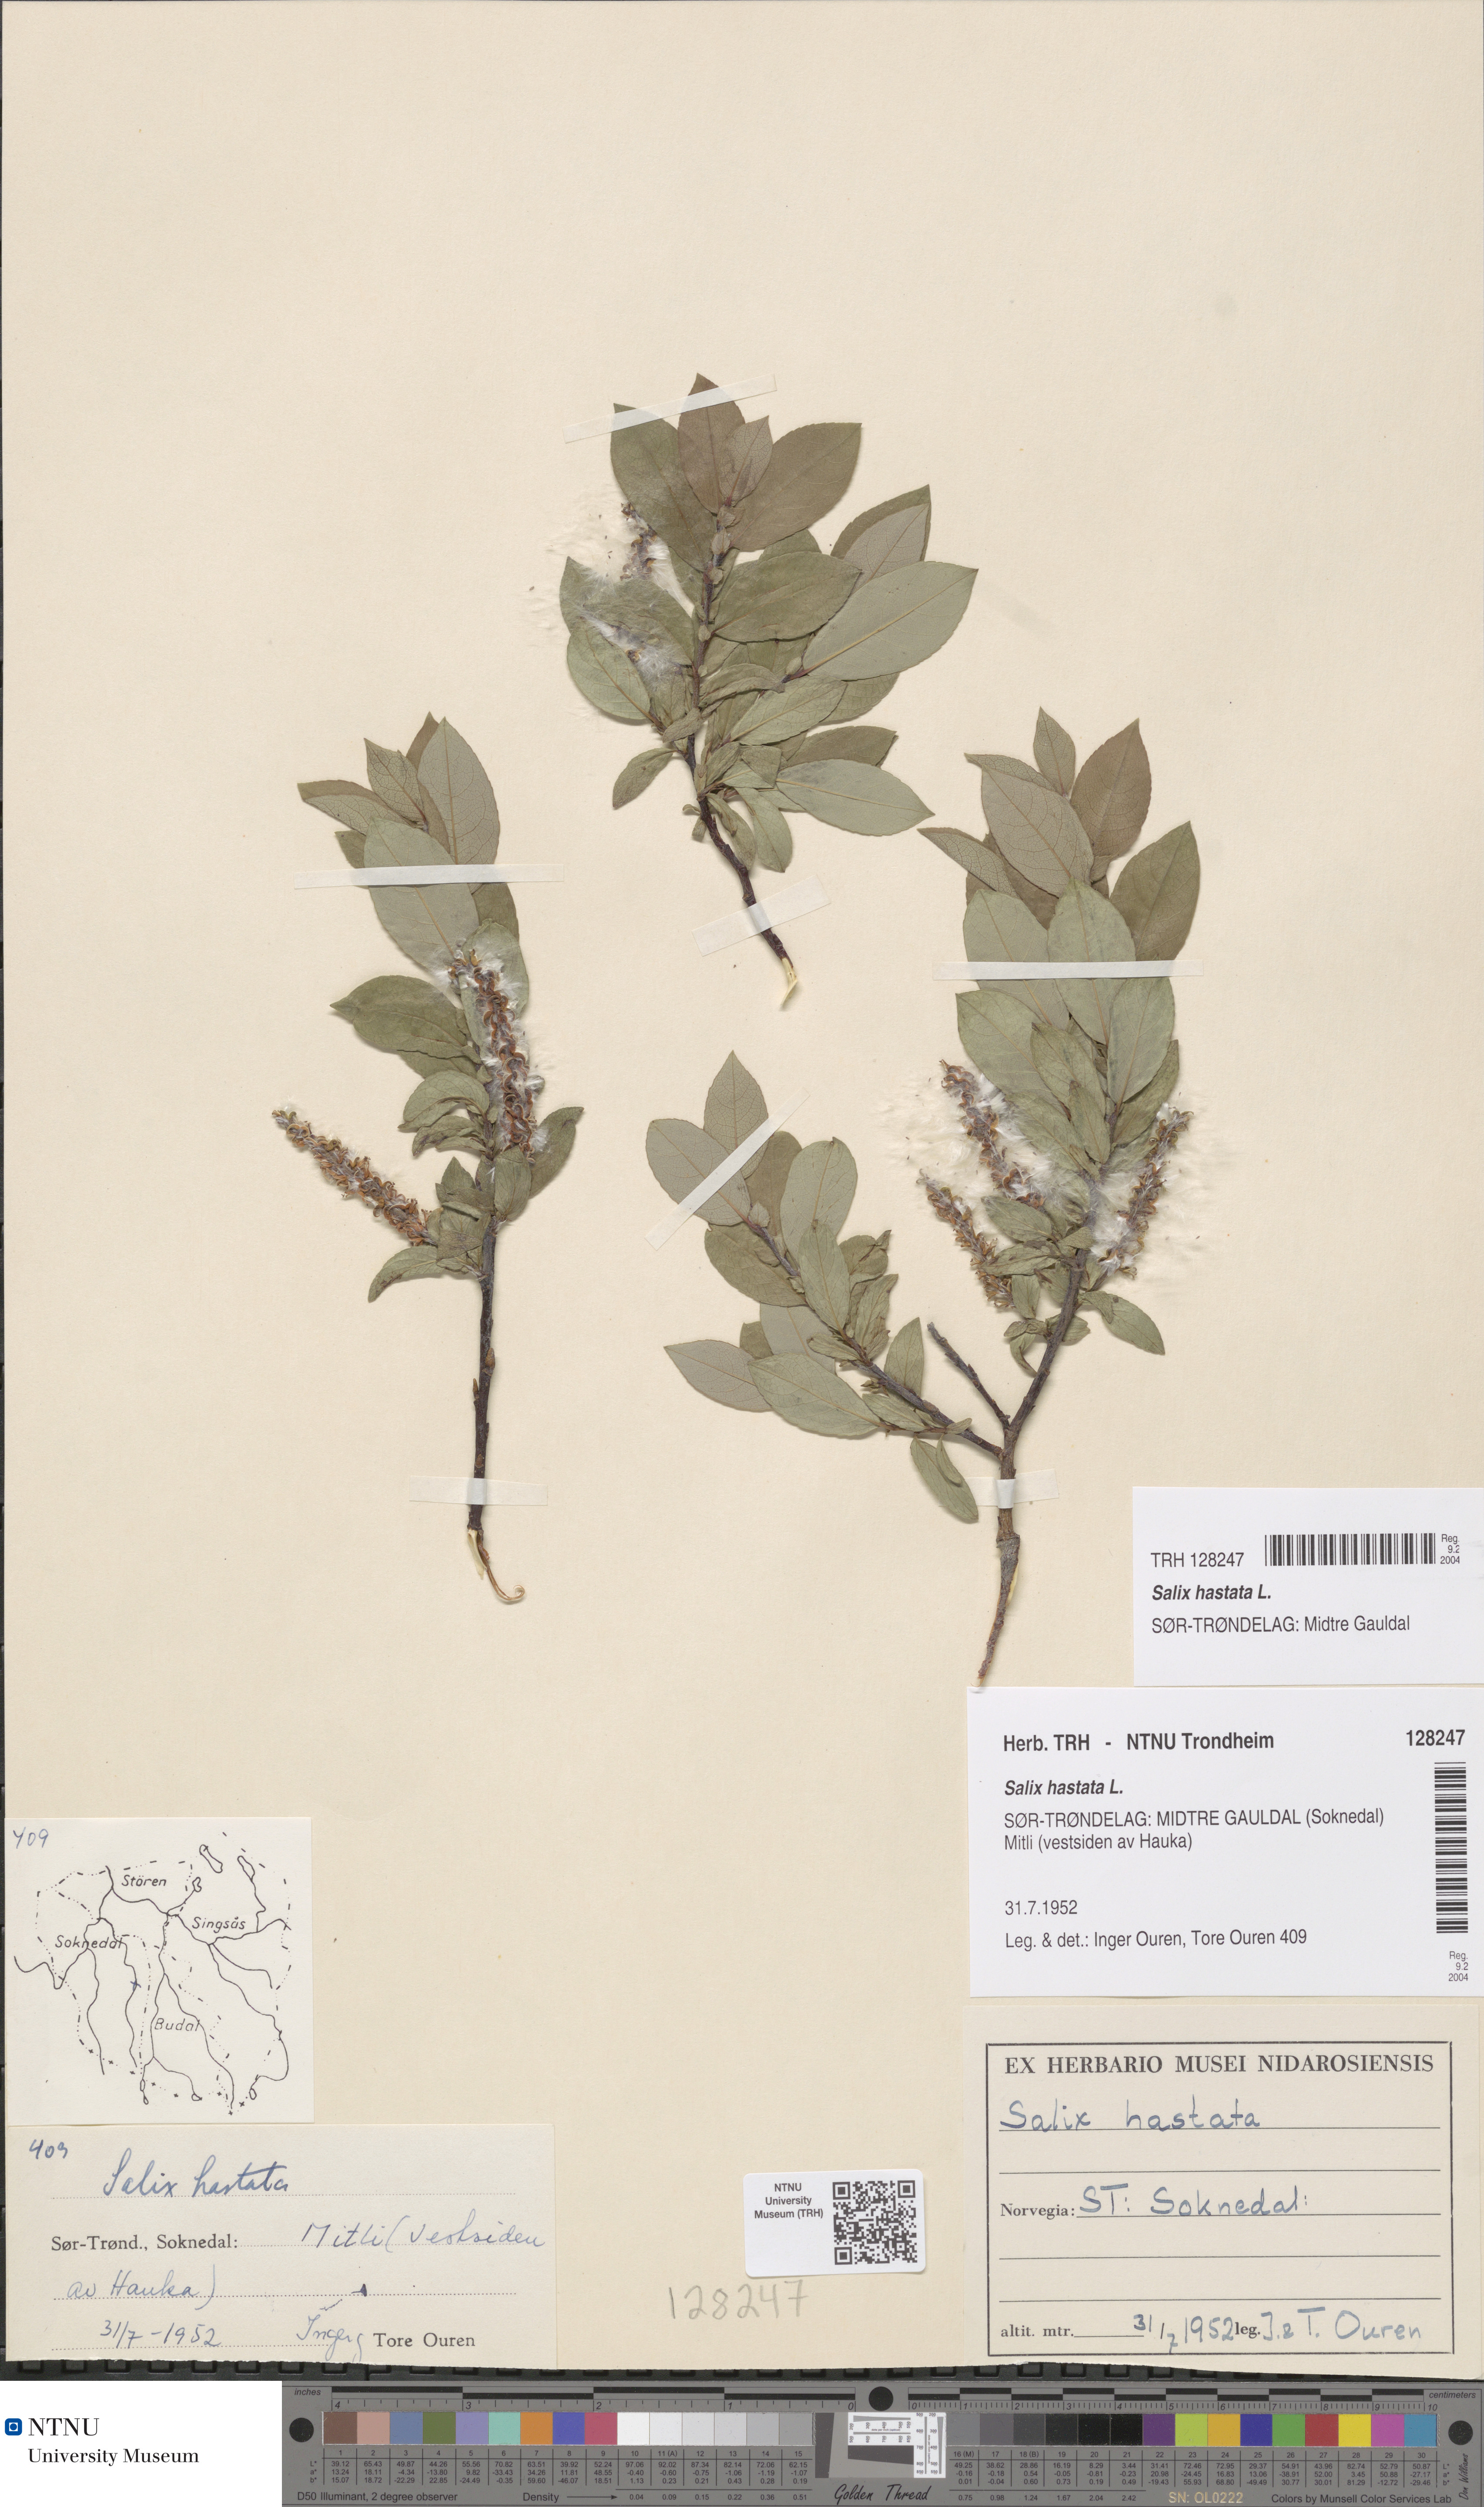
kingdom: Plantae
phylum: Tracheophyta
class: Magnoliopsida
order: Malpighiales
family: Salicaceae
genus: Salix
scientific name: Salix hastata
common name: Halberd willow
